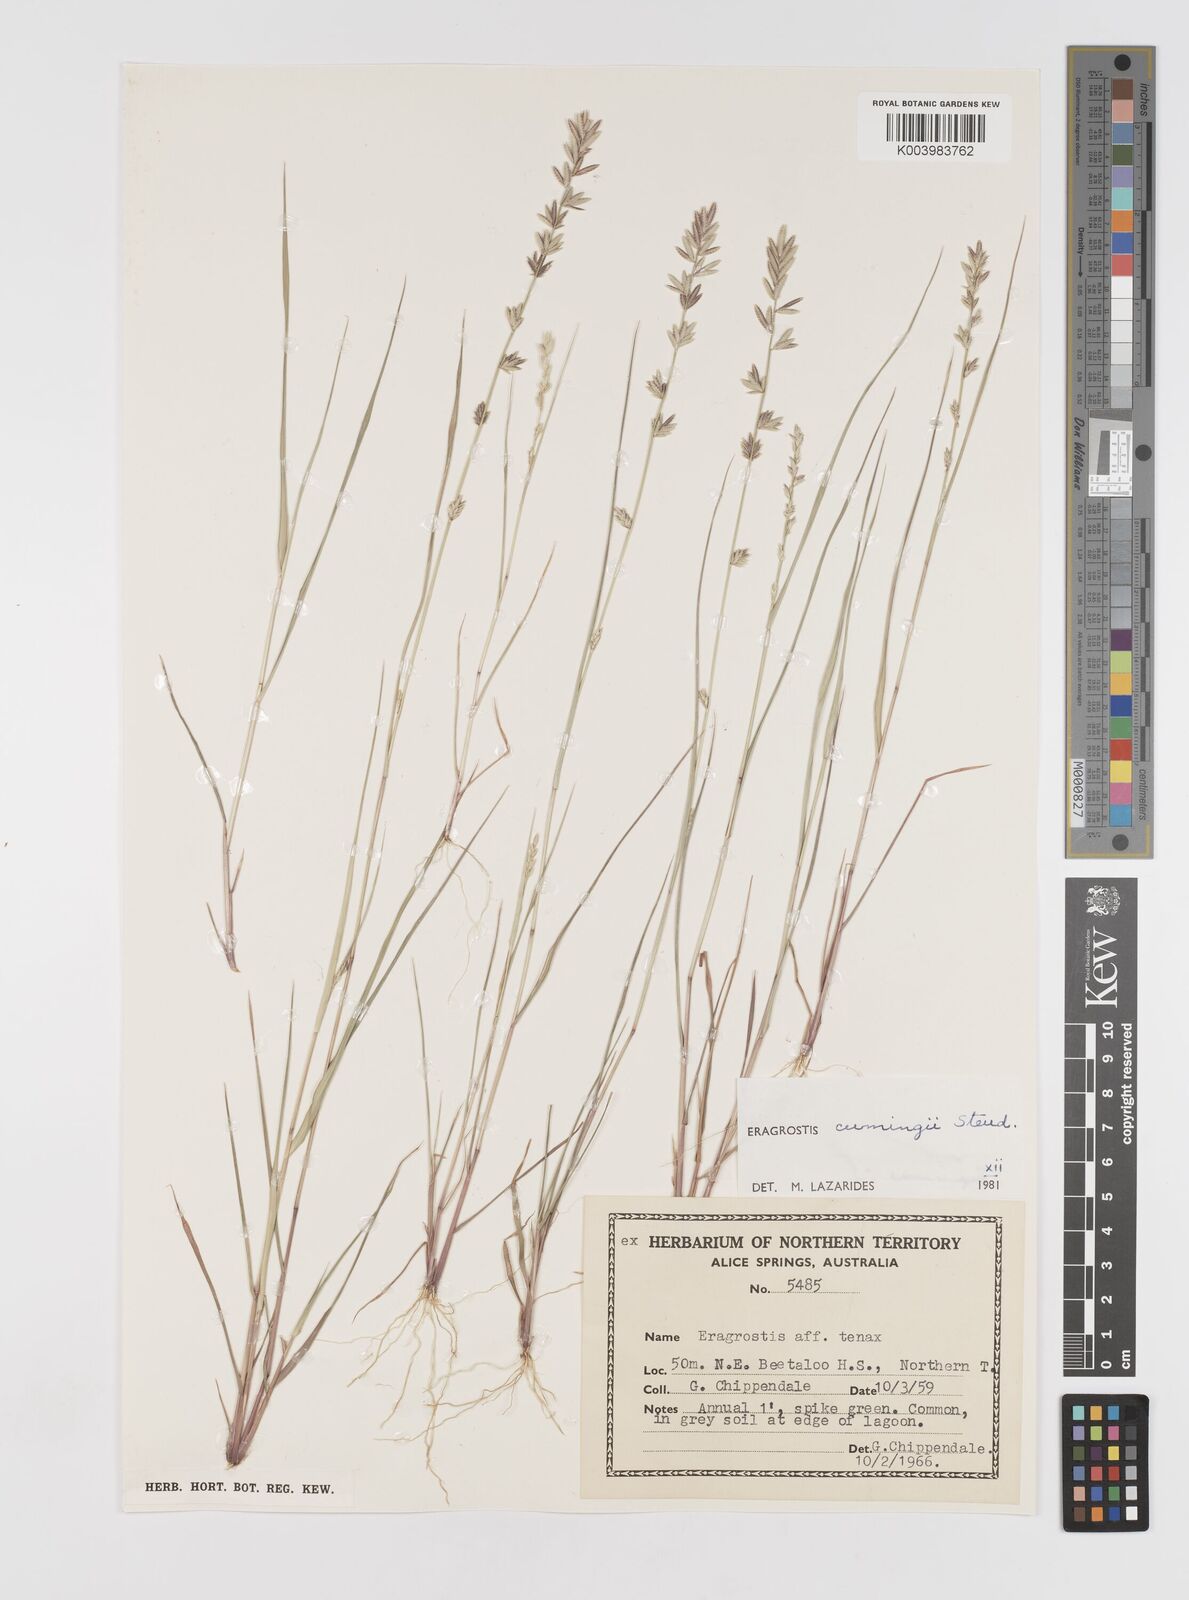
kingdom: Plantae
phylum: Tracheophyta
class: Liliopsida
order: Poales
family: Poaceae
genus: Eragrostis
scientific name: Eragrostis cumingii
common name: Cuming's lovegrass
